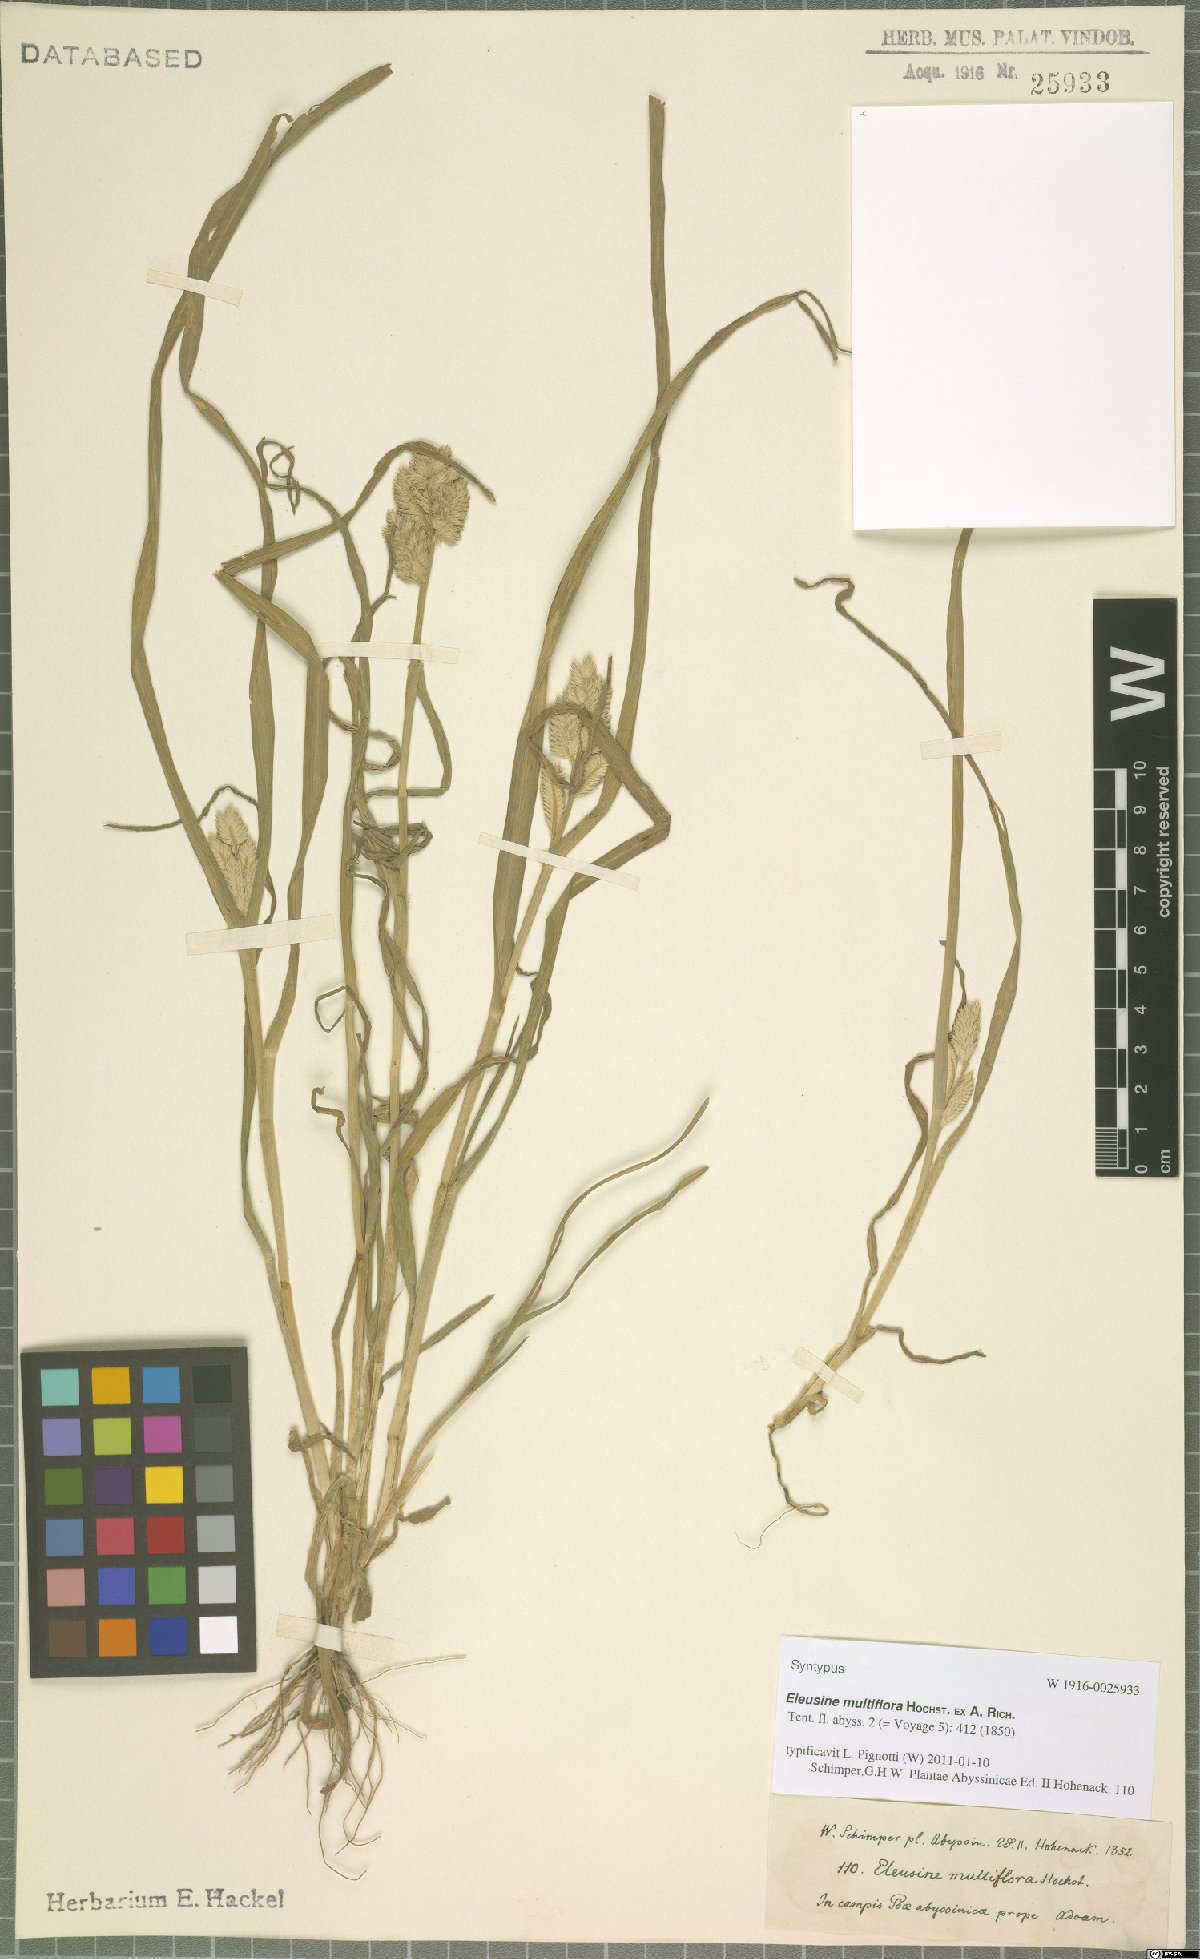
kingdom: Plantae
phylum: Tracheophyta
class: Liliopsida
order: Poales
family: Poaceae
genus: Eleusine
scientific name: Eleusine multiflora
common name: Fat-spiked yard-grass
